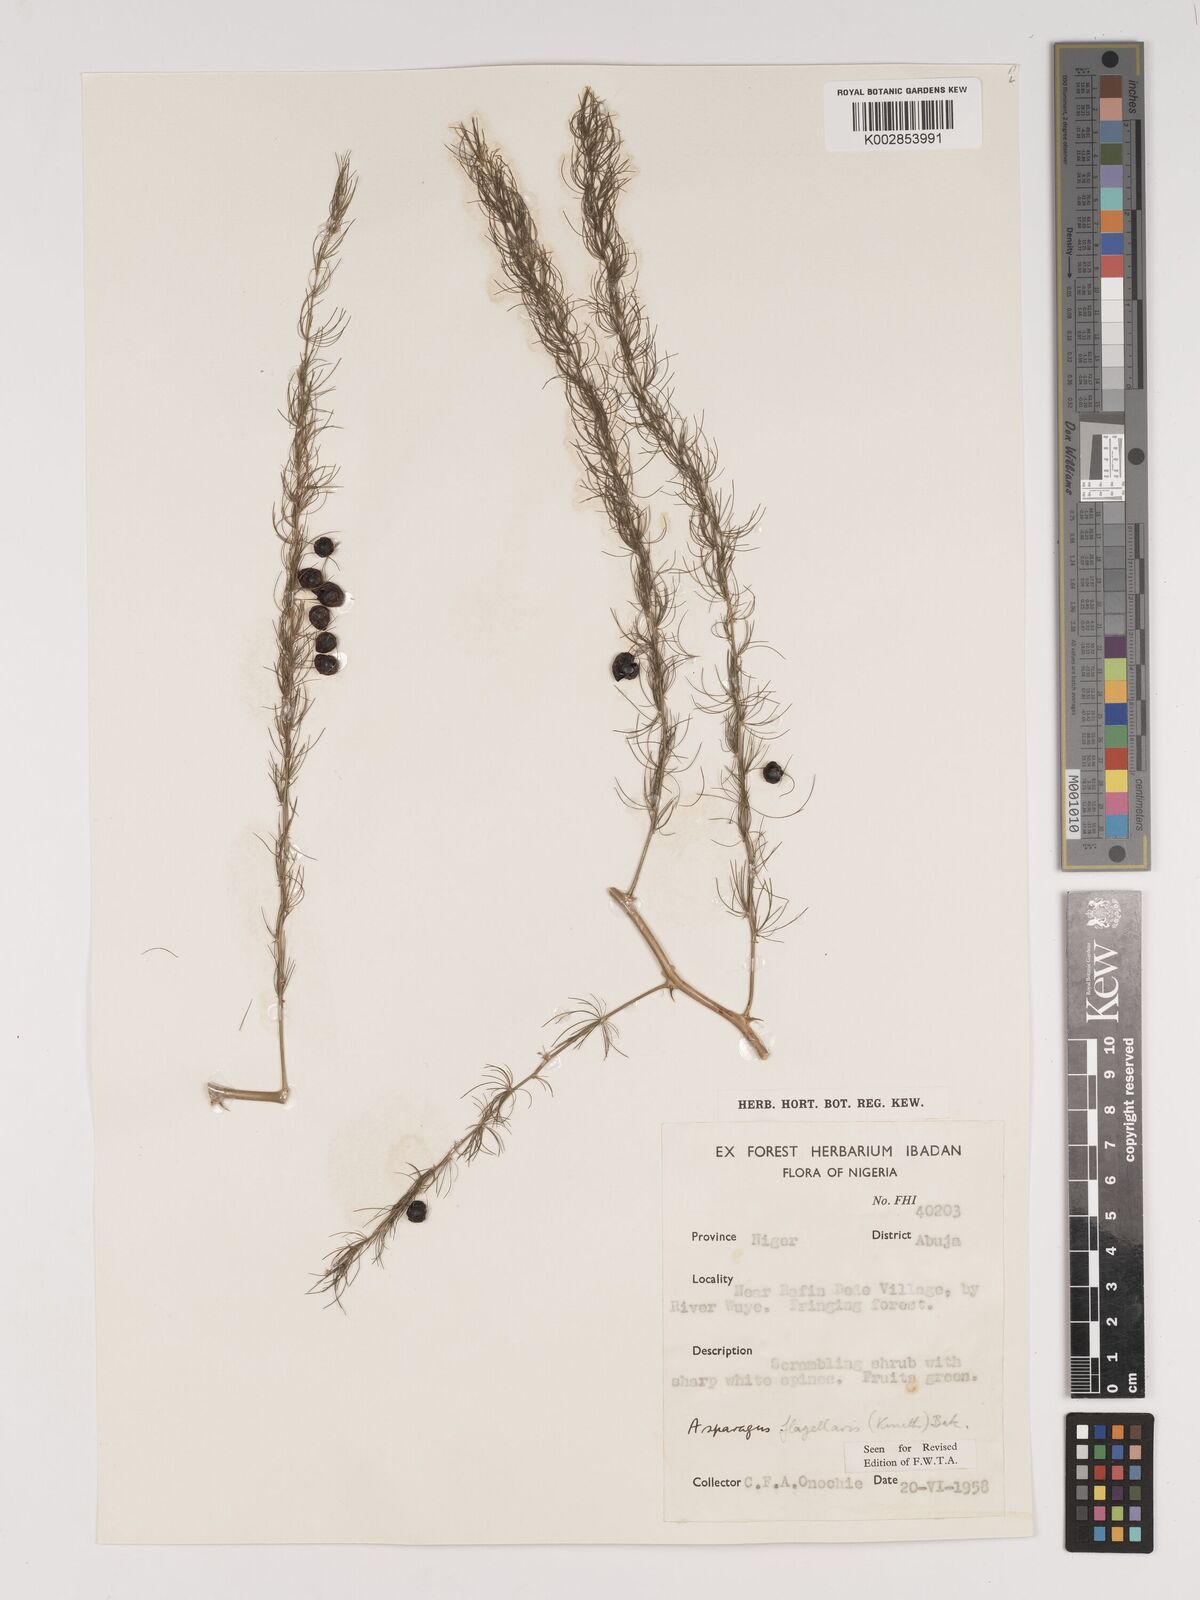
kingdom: Plantae
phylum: Tracheophyta
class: Liliopsida
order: Asparagales
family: Asparagaceae
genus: Asparagus
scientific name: Asparagus flagellaris
